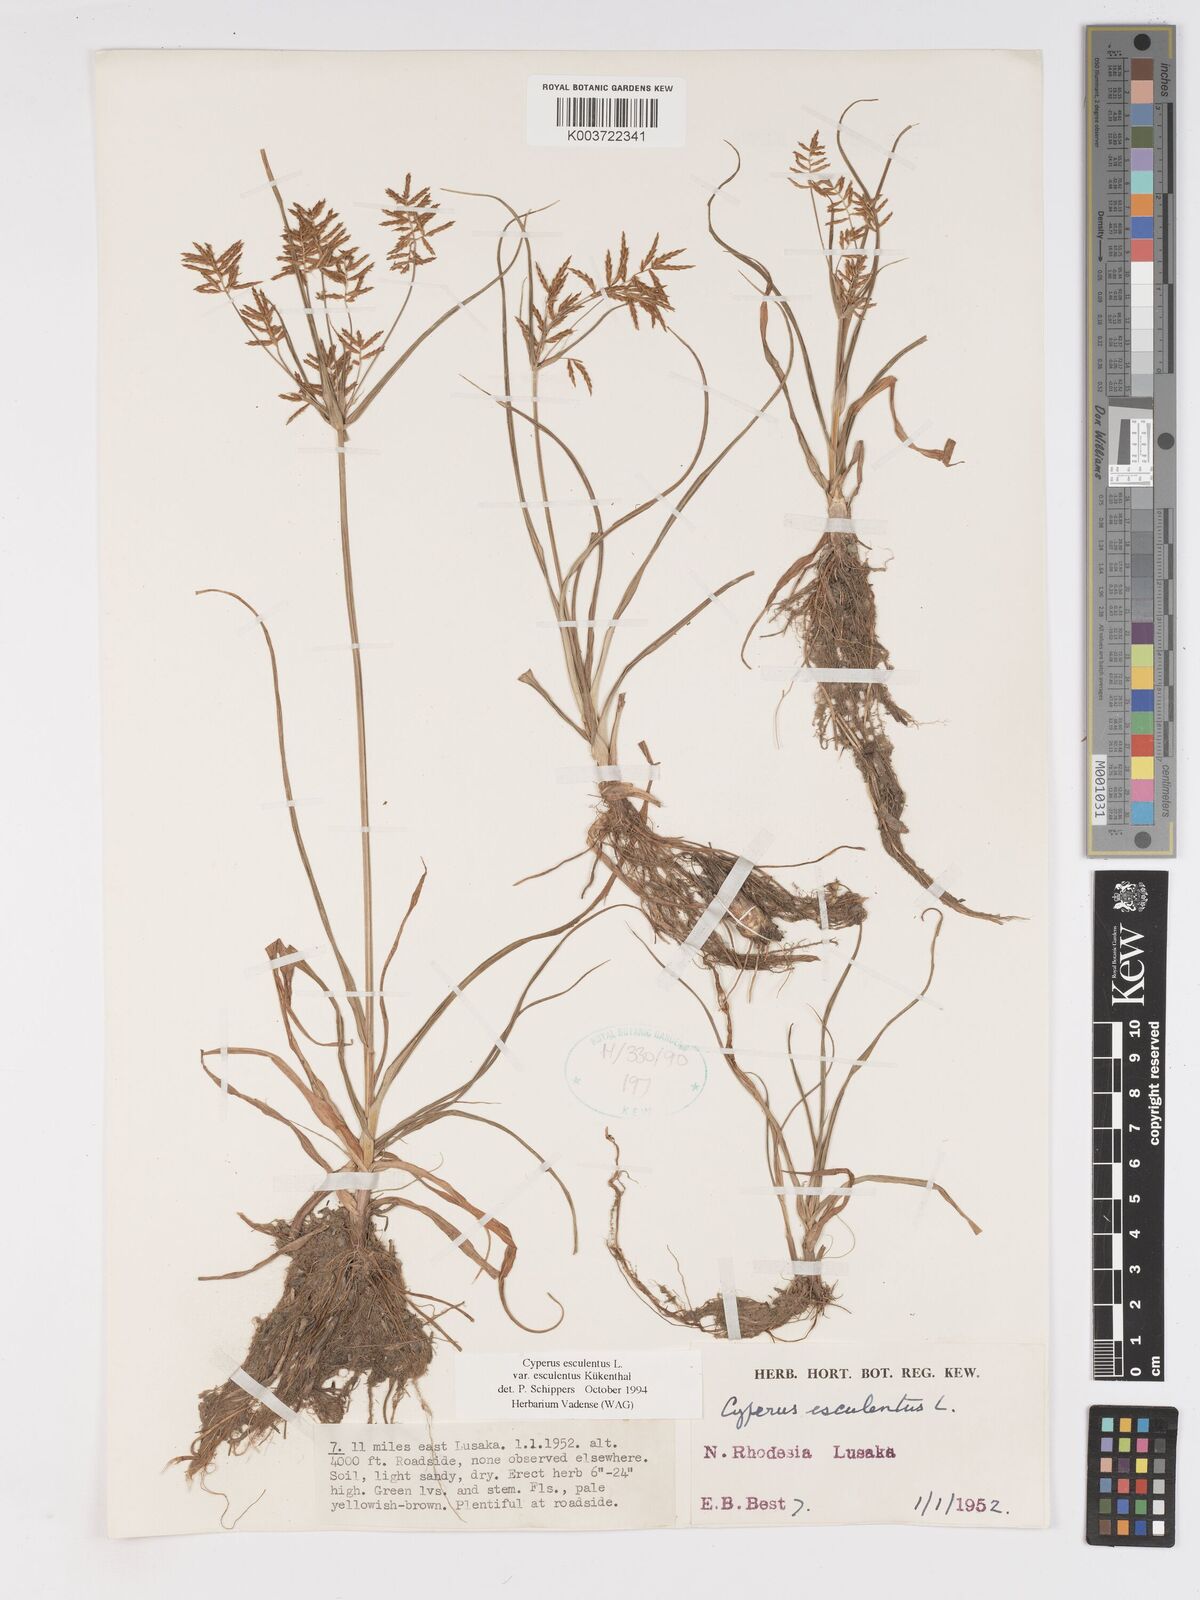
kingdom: Plantae
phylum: Tracheophyta
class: Liliopsida
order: Poales
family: Cyperaceae
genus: Cyperus
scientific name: Cyperus esculentus
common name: Yellow nutsedge
